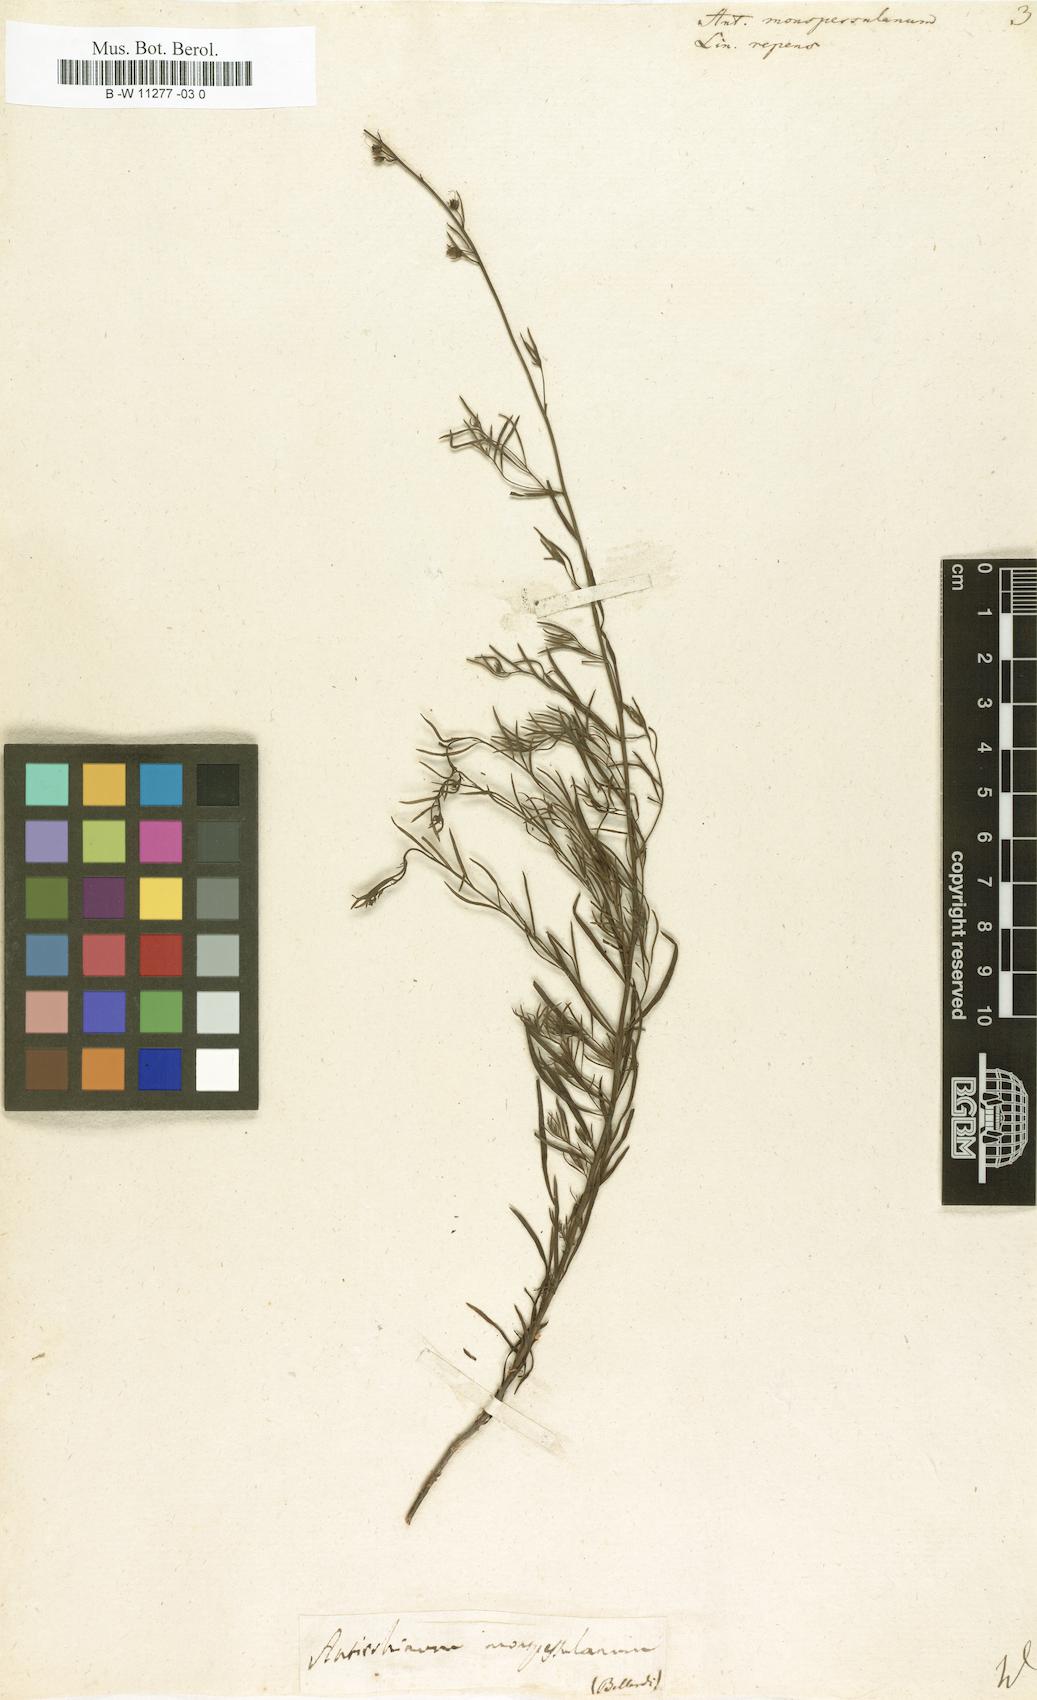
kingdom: Plantae
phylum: Tracheophyta
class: Magnoliopsida
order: Lamiales
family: Plantaginaceae
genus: Linaria
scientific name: Linaria repens
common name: Pale toadflax
